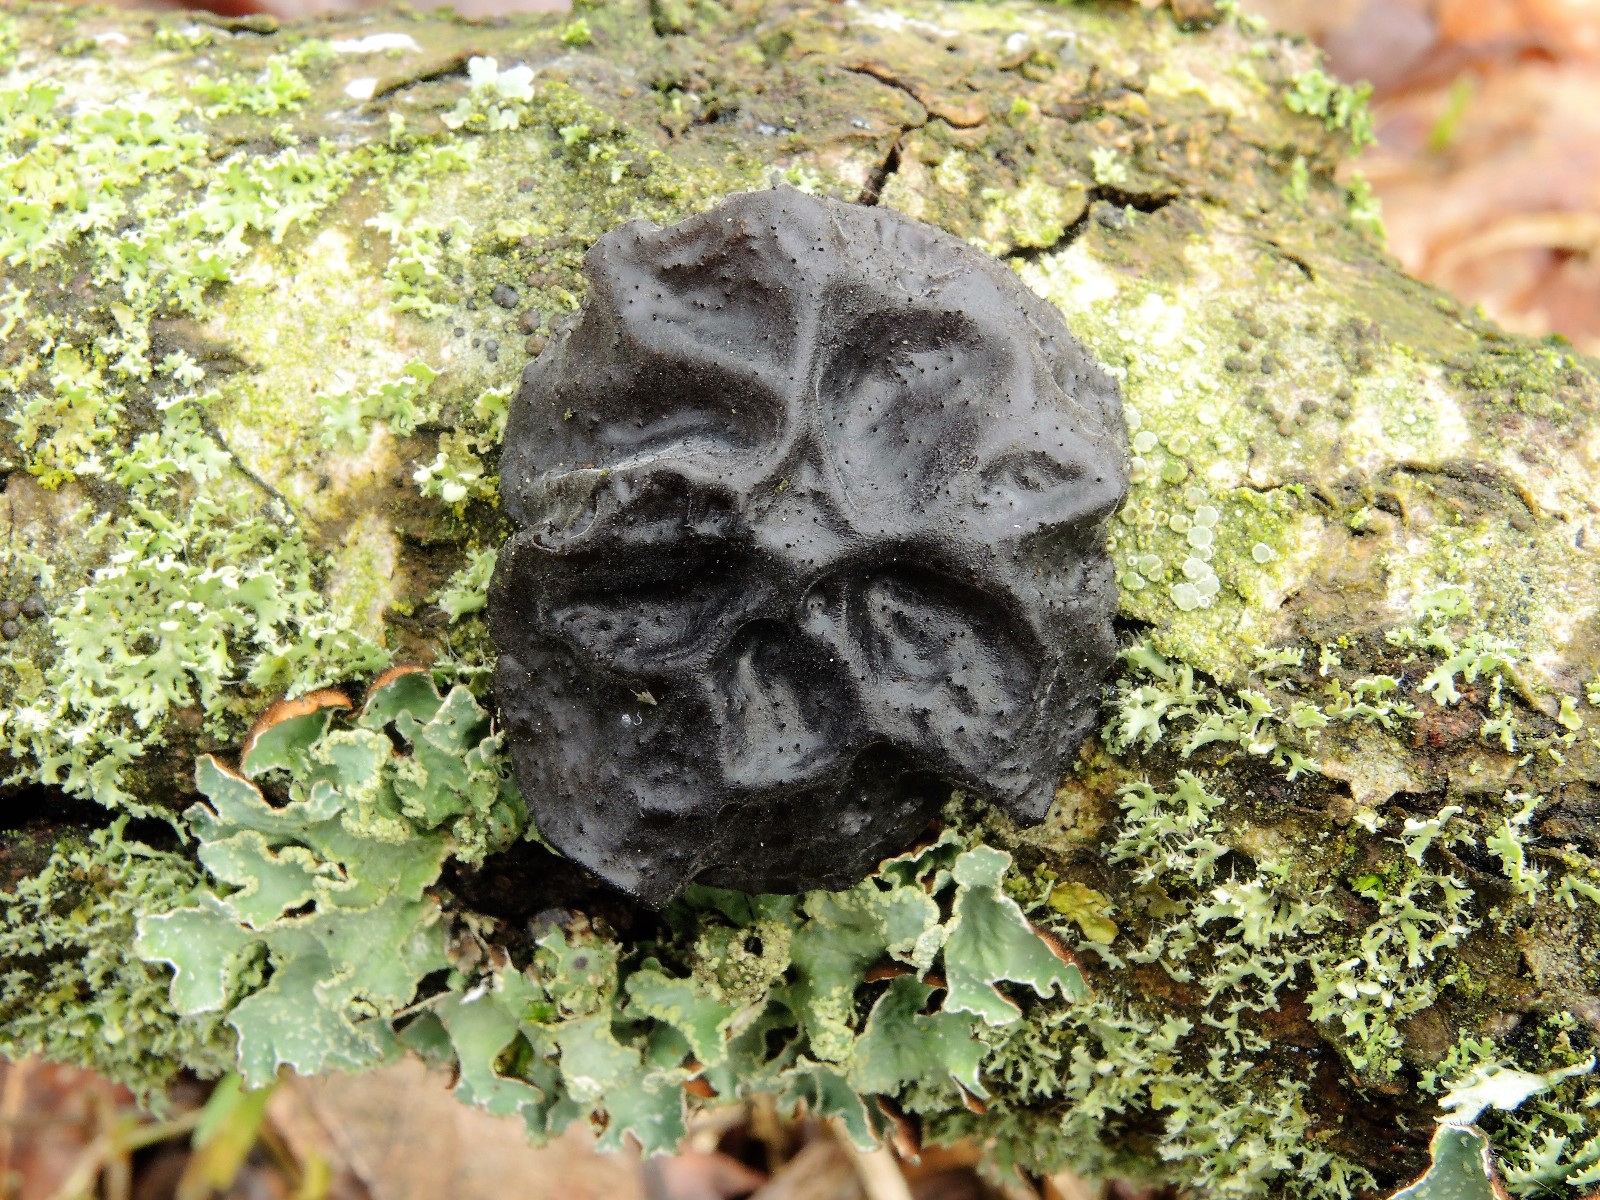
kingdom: Fungi
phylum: Basidiomycota
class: Agaricomycetes
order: Auriculariales
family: Auriculariaceae
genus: Exidia
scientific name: Exidia glandulosa
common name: ege-bævretop
